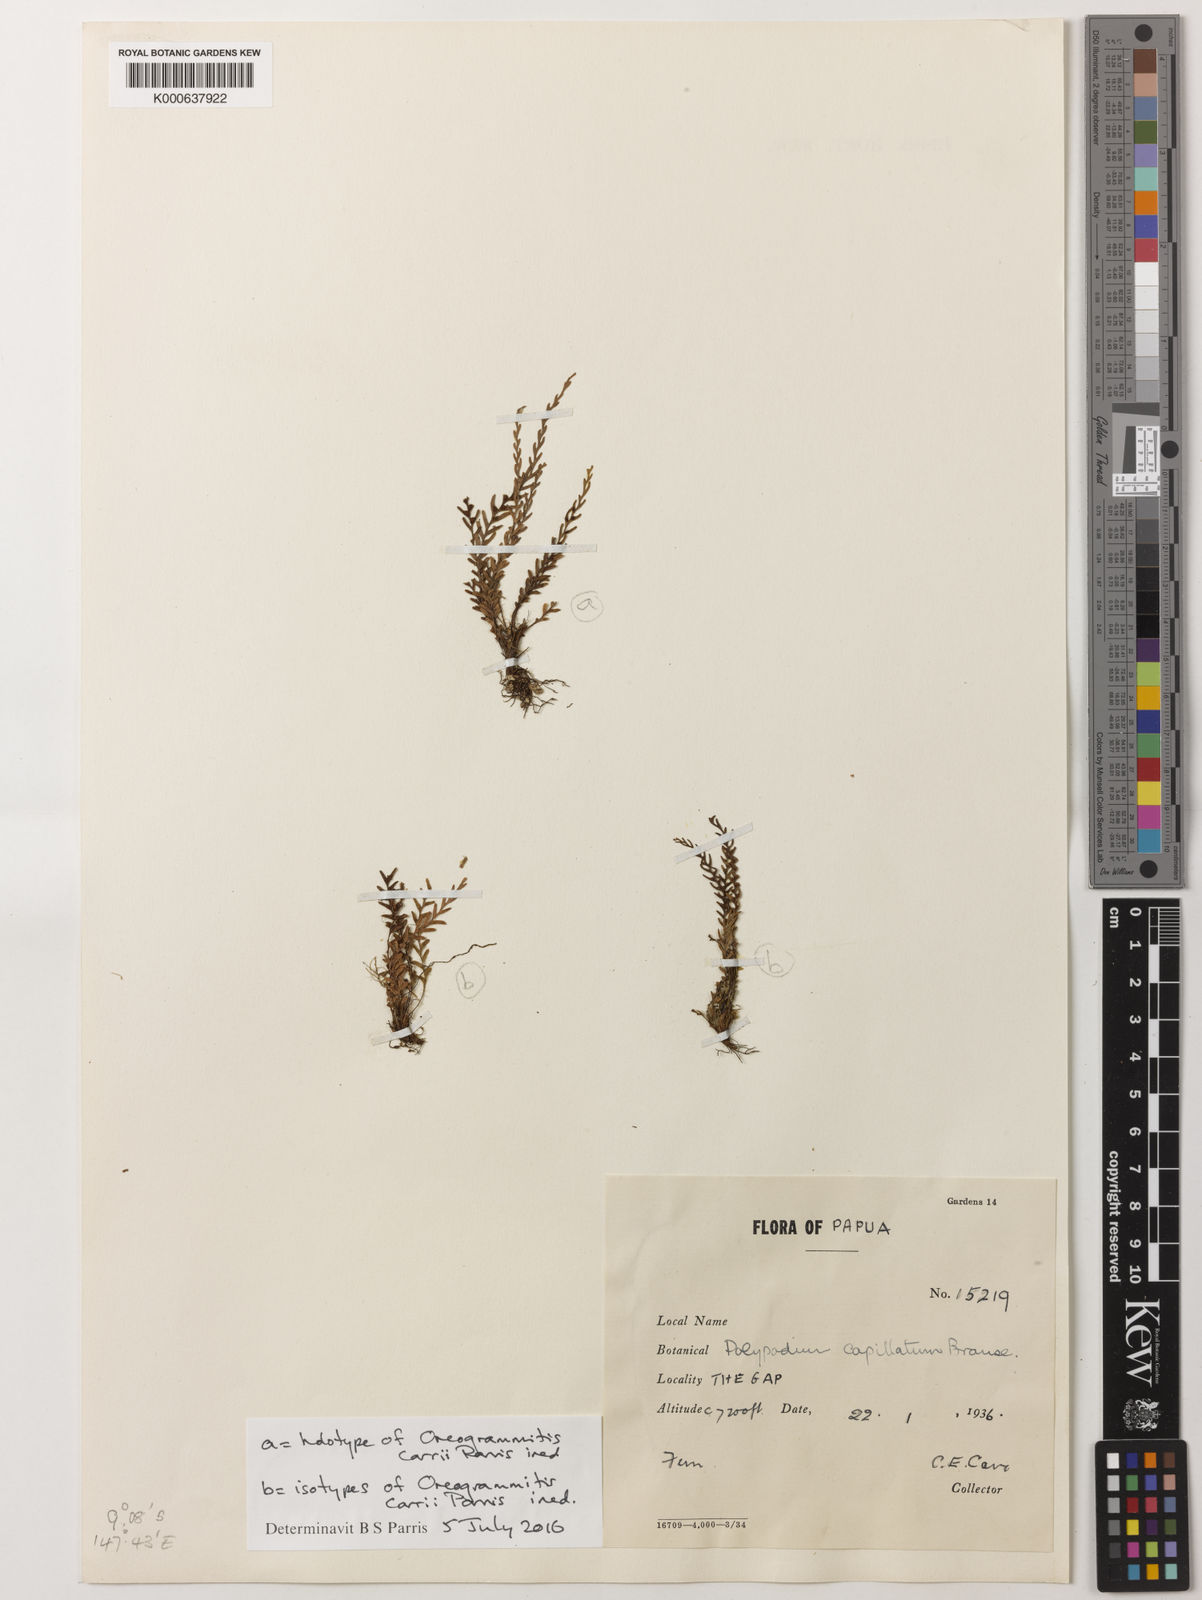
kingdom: Plantae
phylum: Tracheophyta
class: Polypodiopsida
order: Polypodiales
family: Polypodiaceae
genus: Oreogrammitis
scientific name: Oreogrammitis
